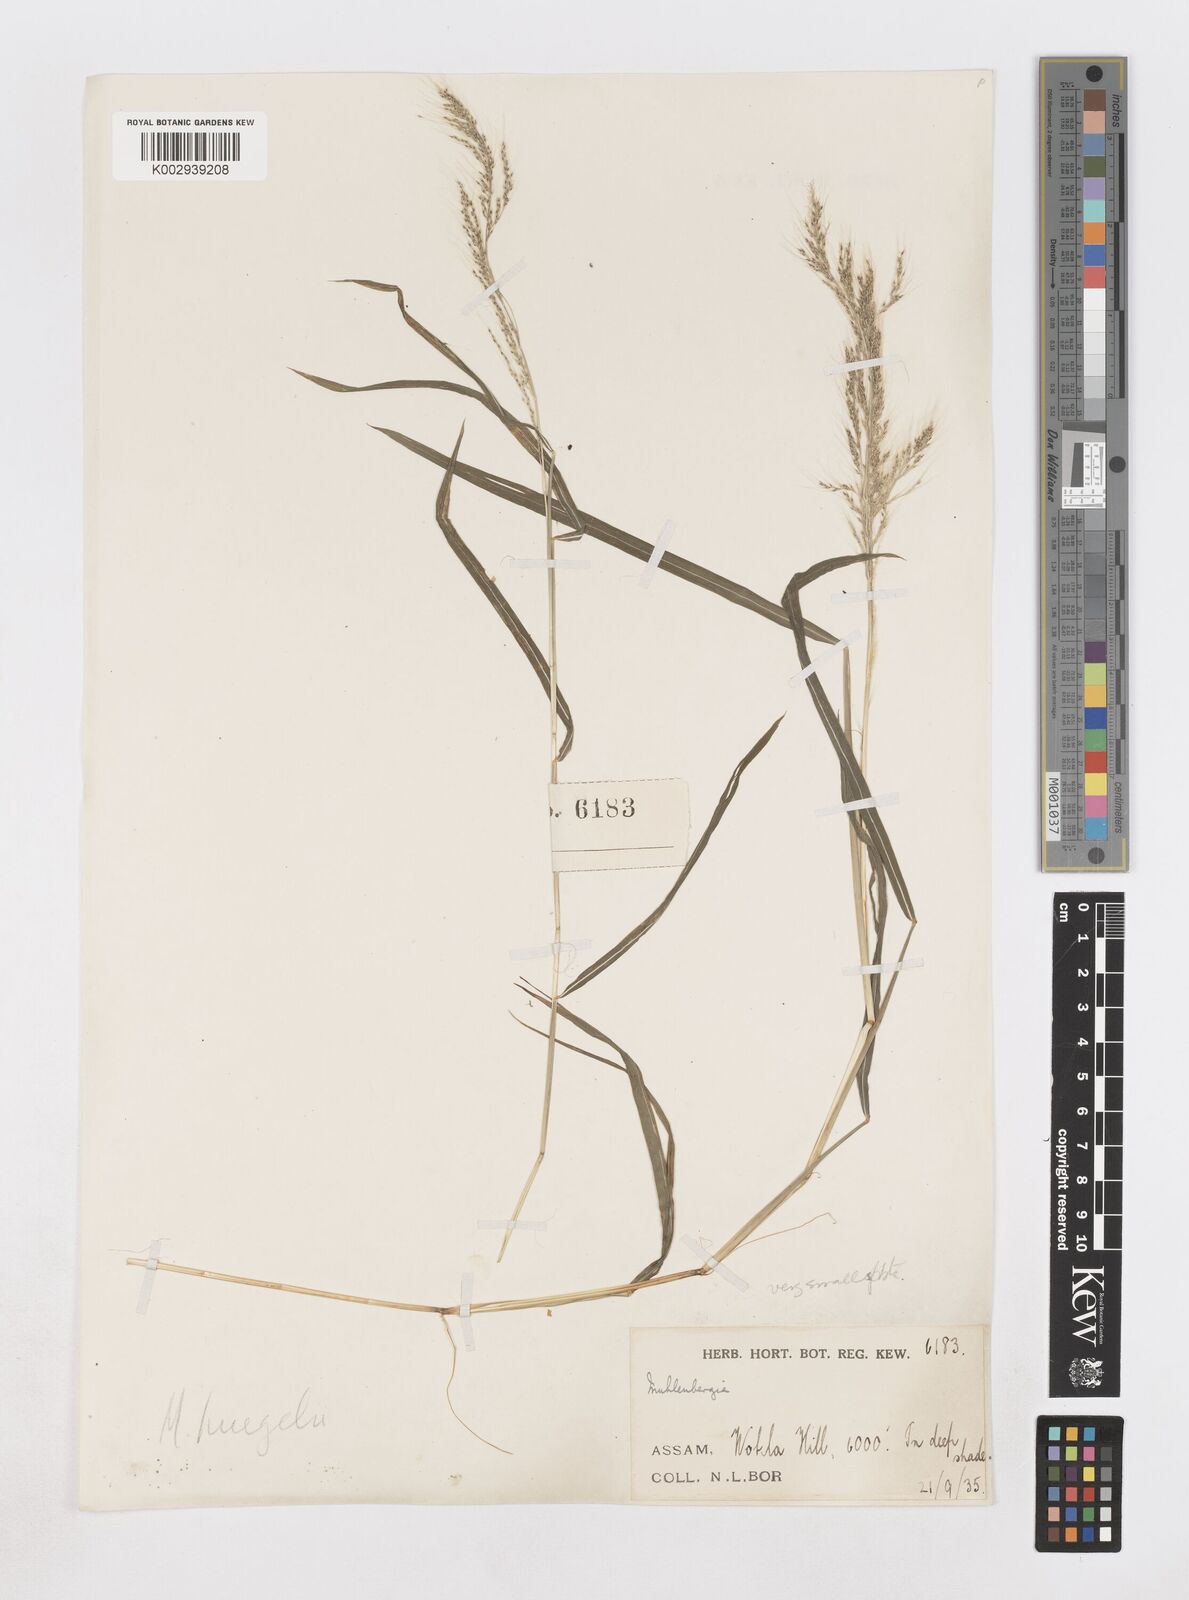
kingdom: Plantae
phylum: Tracheophyta
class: Liliopsida
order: Poales
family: Poaceae
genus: Muhlenbergia
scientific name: Muhlenbergia huegelii
